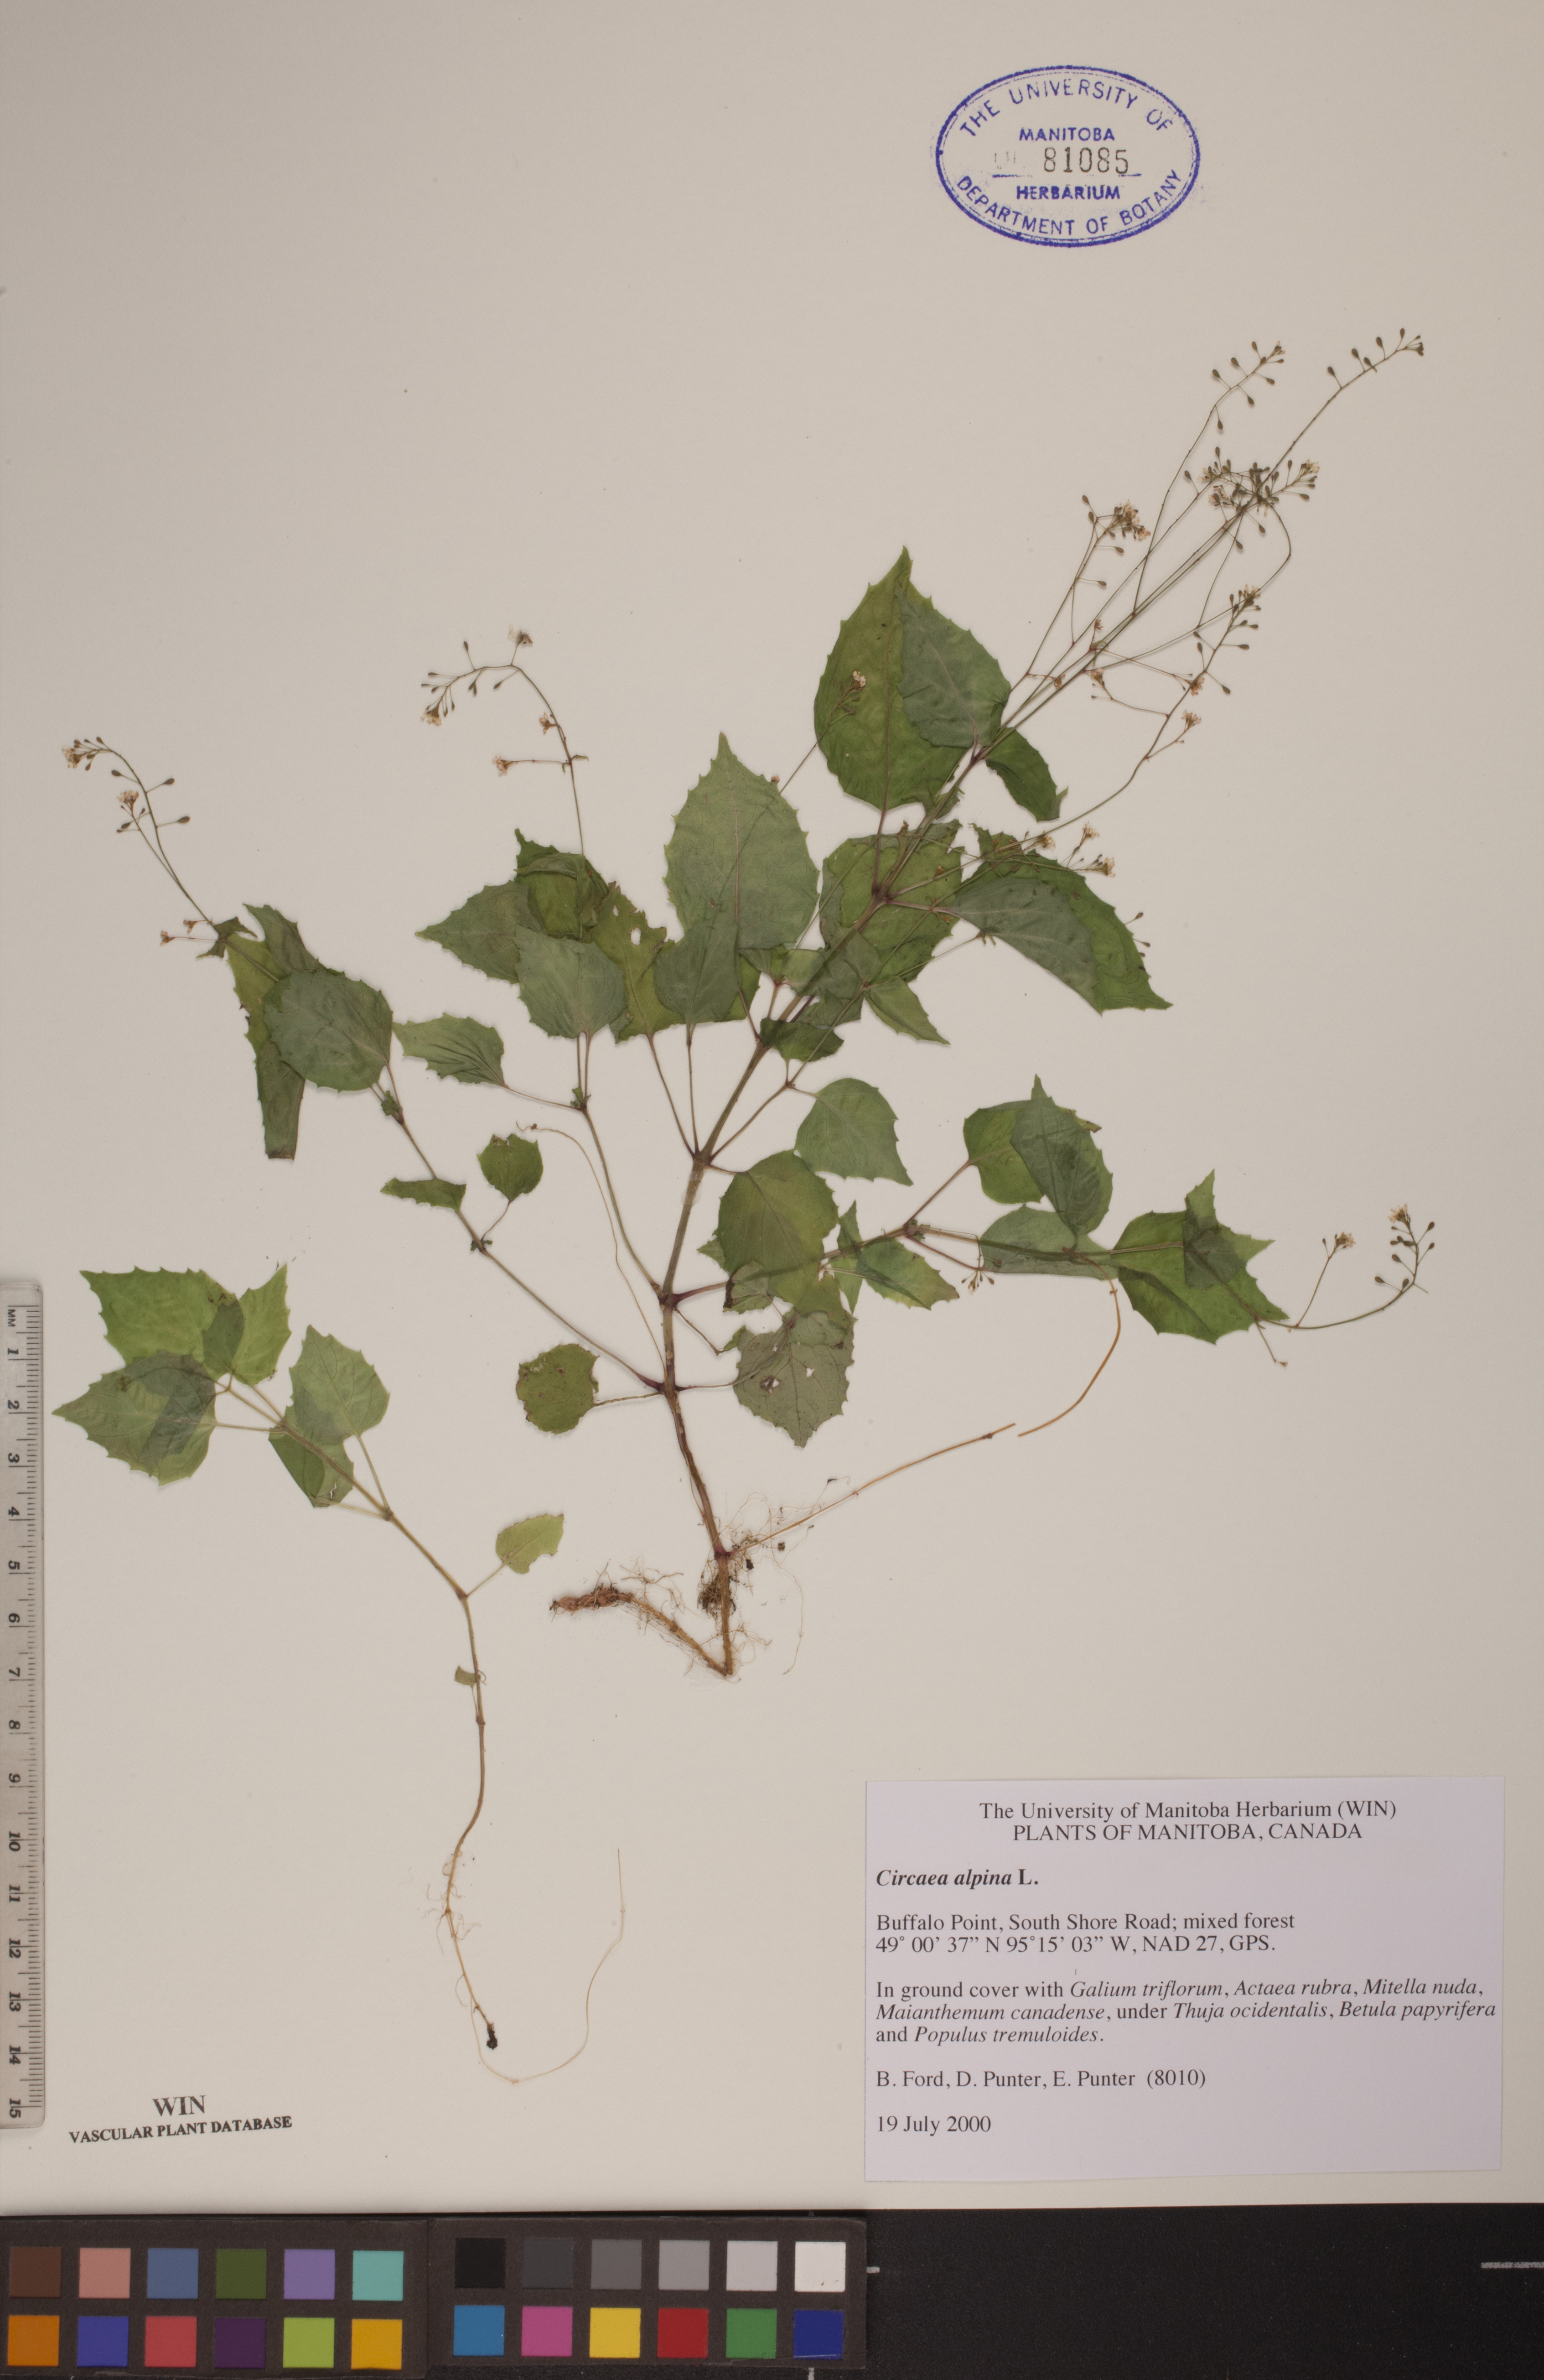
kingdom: Plantae
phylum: Tracheophyta
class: Magnoliopsida
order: Myrtales
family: Onagraceae
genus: Circaea
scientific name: Circaea alpina
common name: Alpine enchanter's-nightshade
